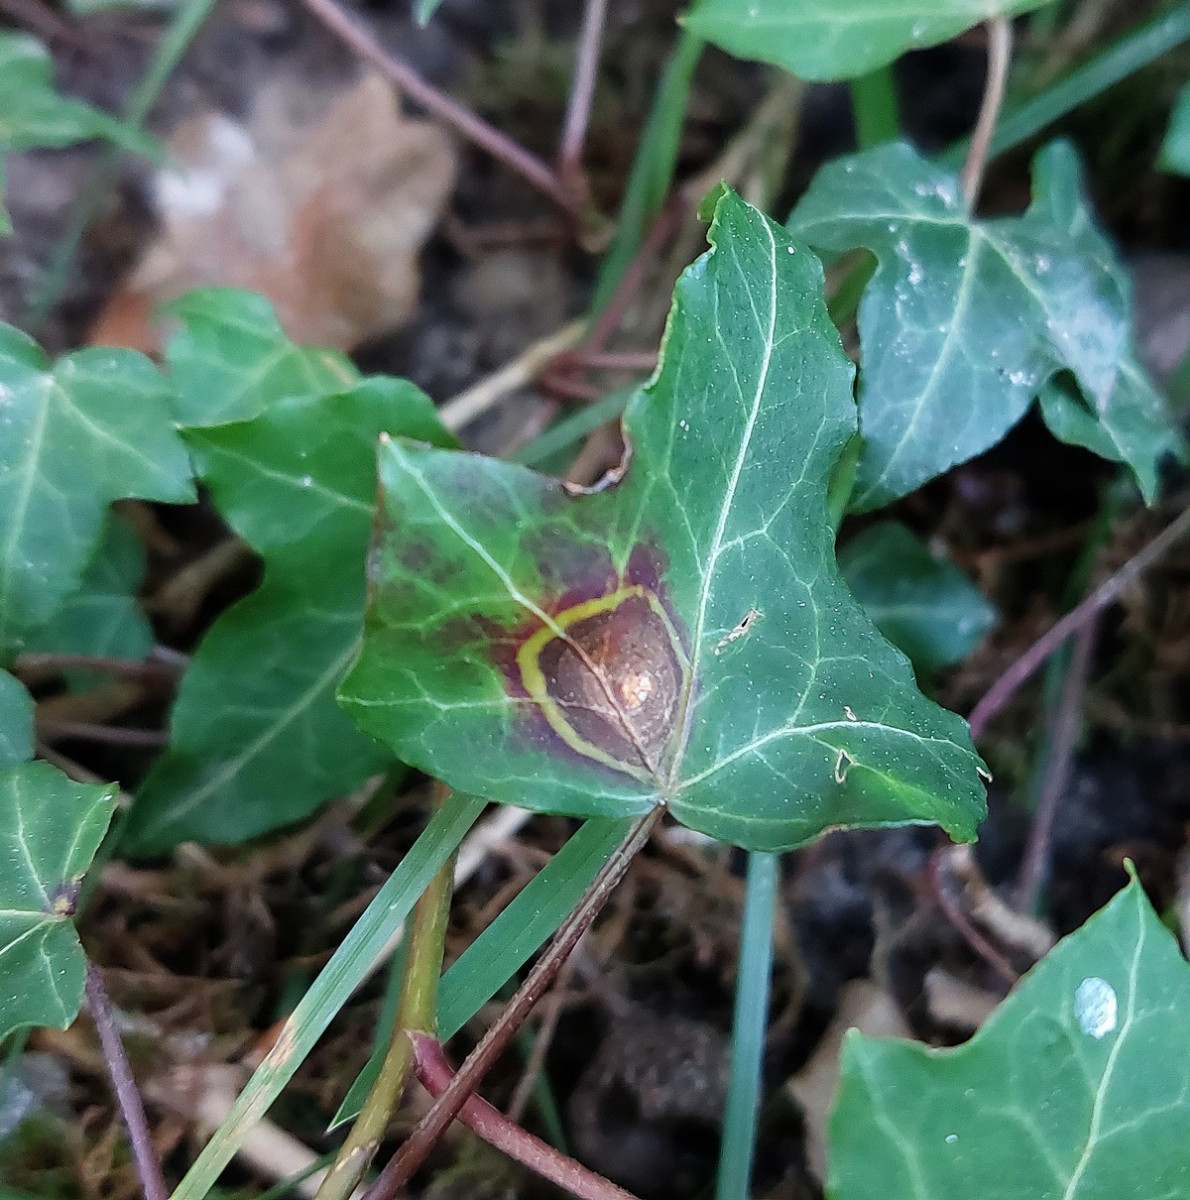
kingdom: Fungi
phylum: Ascomycota
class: Dothideomycetes
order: Pleosporales
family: Didymellaceae
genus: Boeremia
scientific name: Boeremia hedericola
